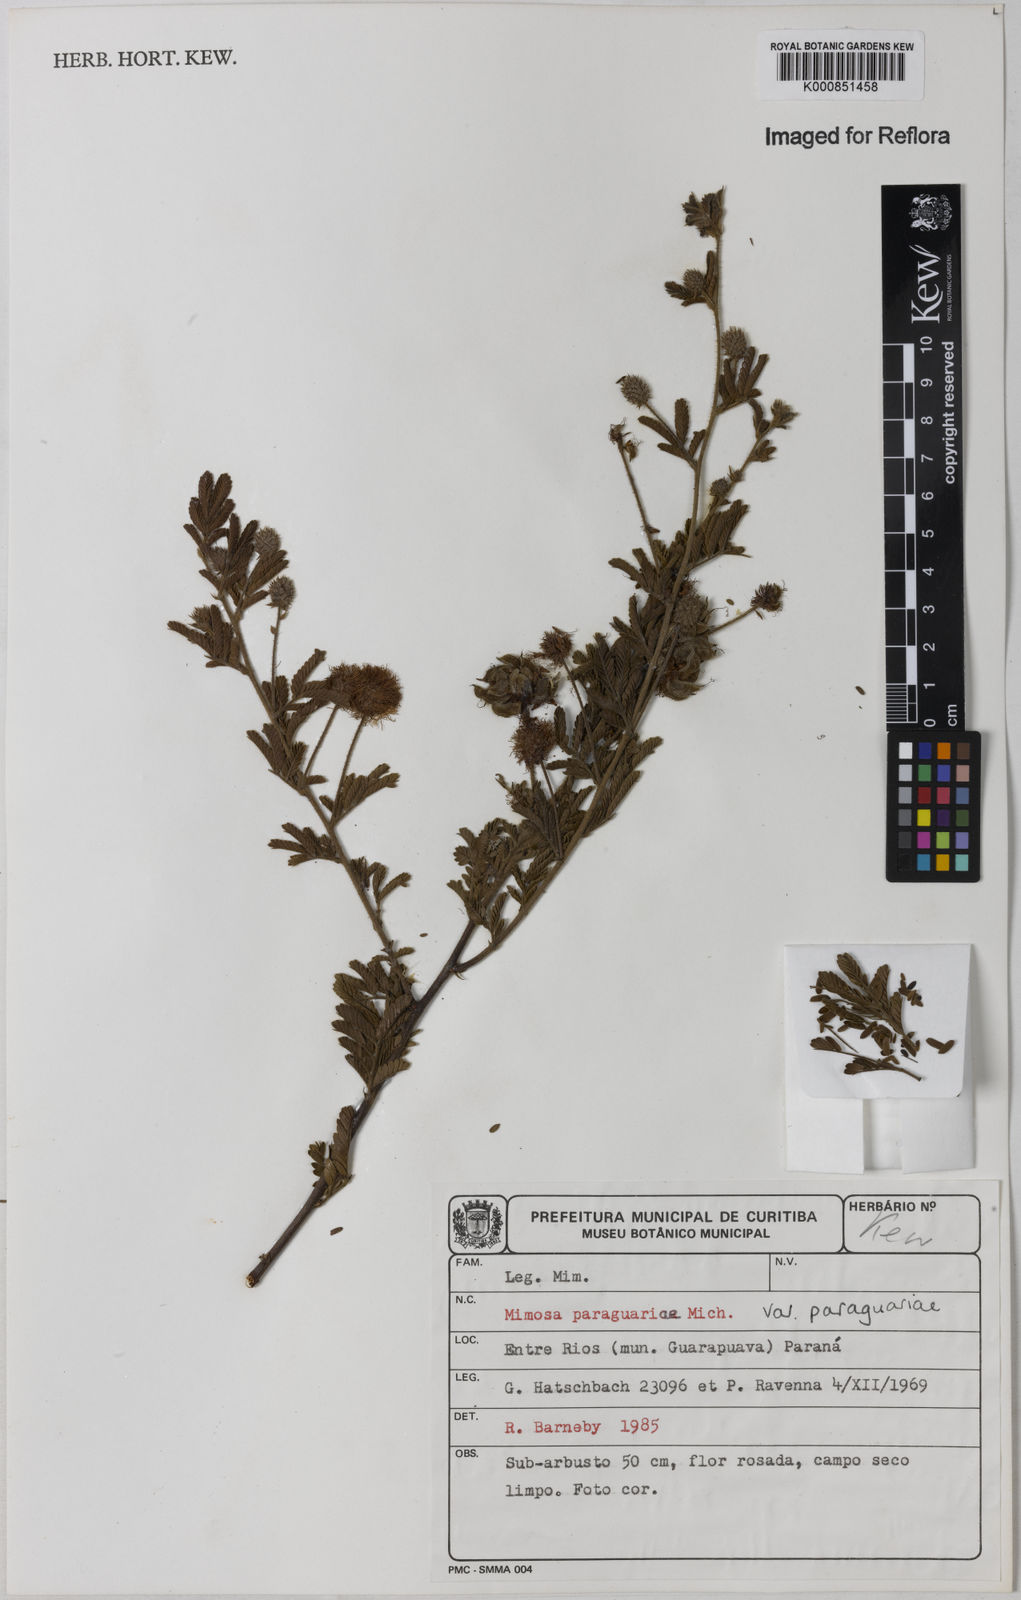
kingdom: Plantae
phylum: Tracheophyta
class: Magnoliopsida
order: Fabales
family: Fabaceae
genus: Mimosa
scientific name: Mimosa paraguariae
